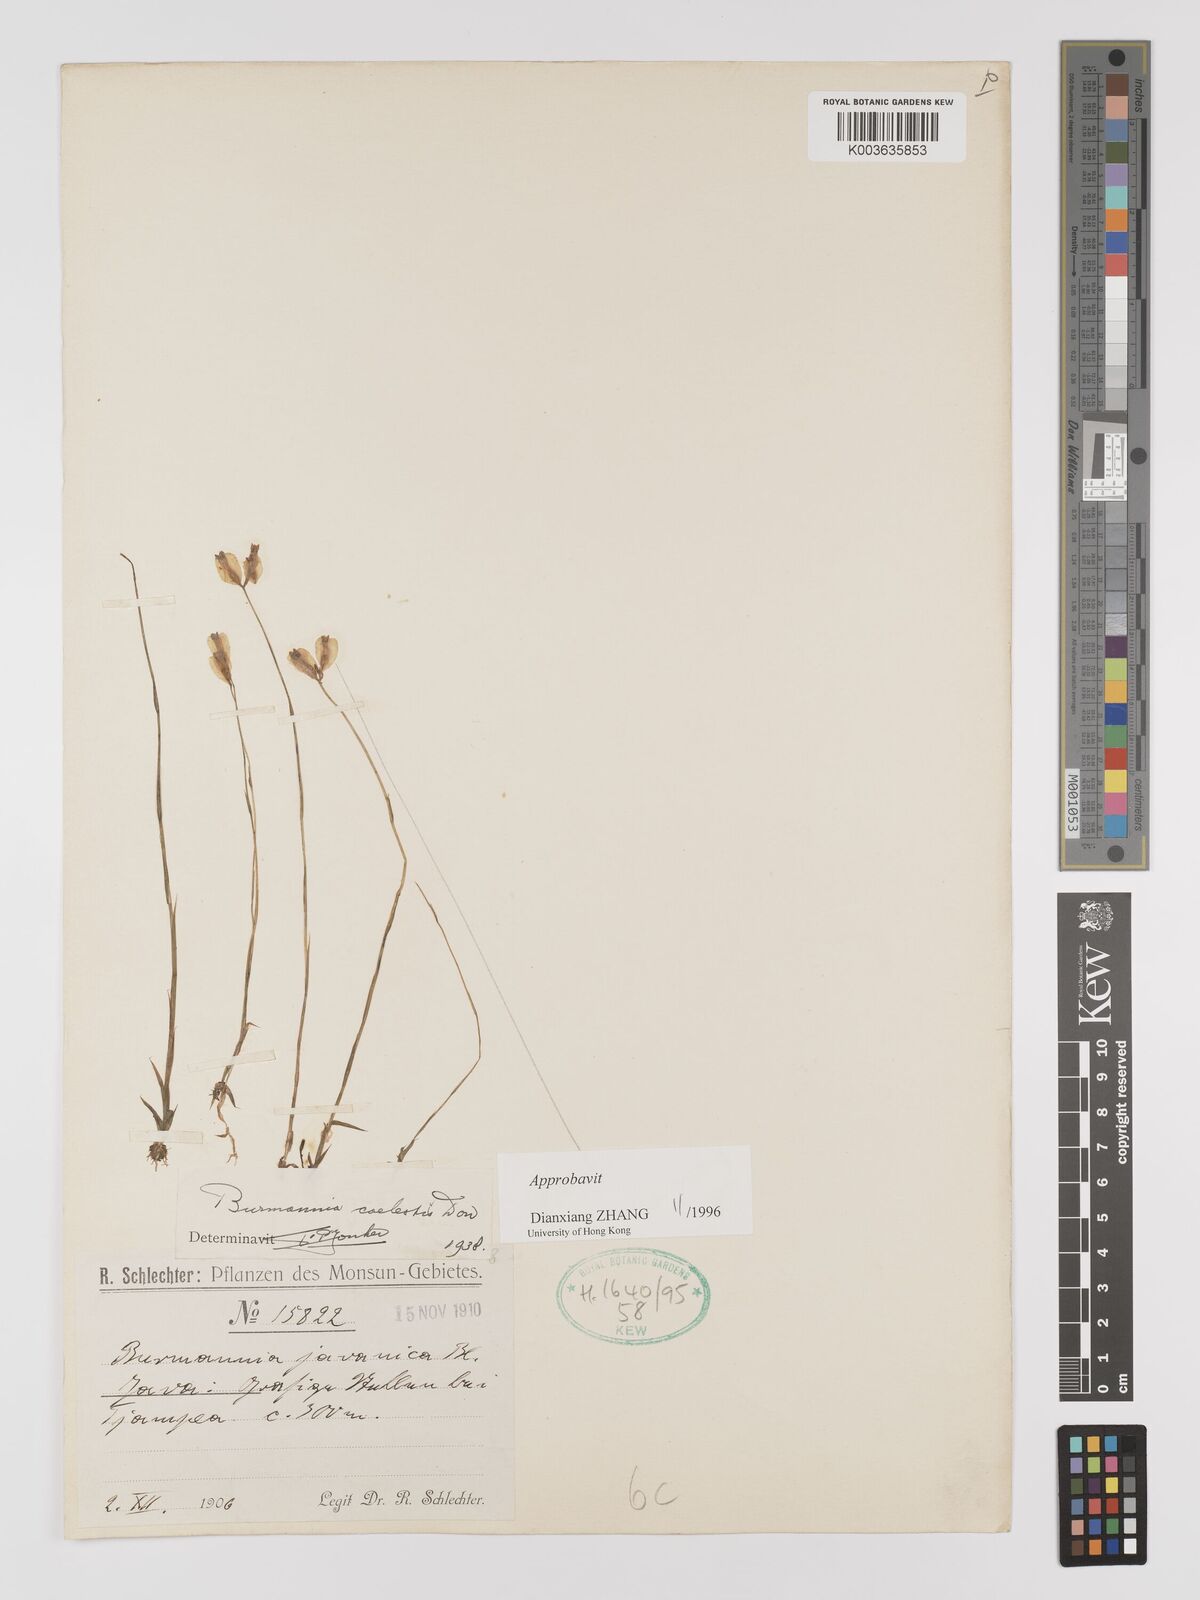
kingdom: Plantae
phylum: Tracheophyta
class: Liliopsida
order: Dioscoreales
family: Burmanniaceae
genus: Burmannia
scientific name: Burmannia coelestis
